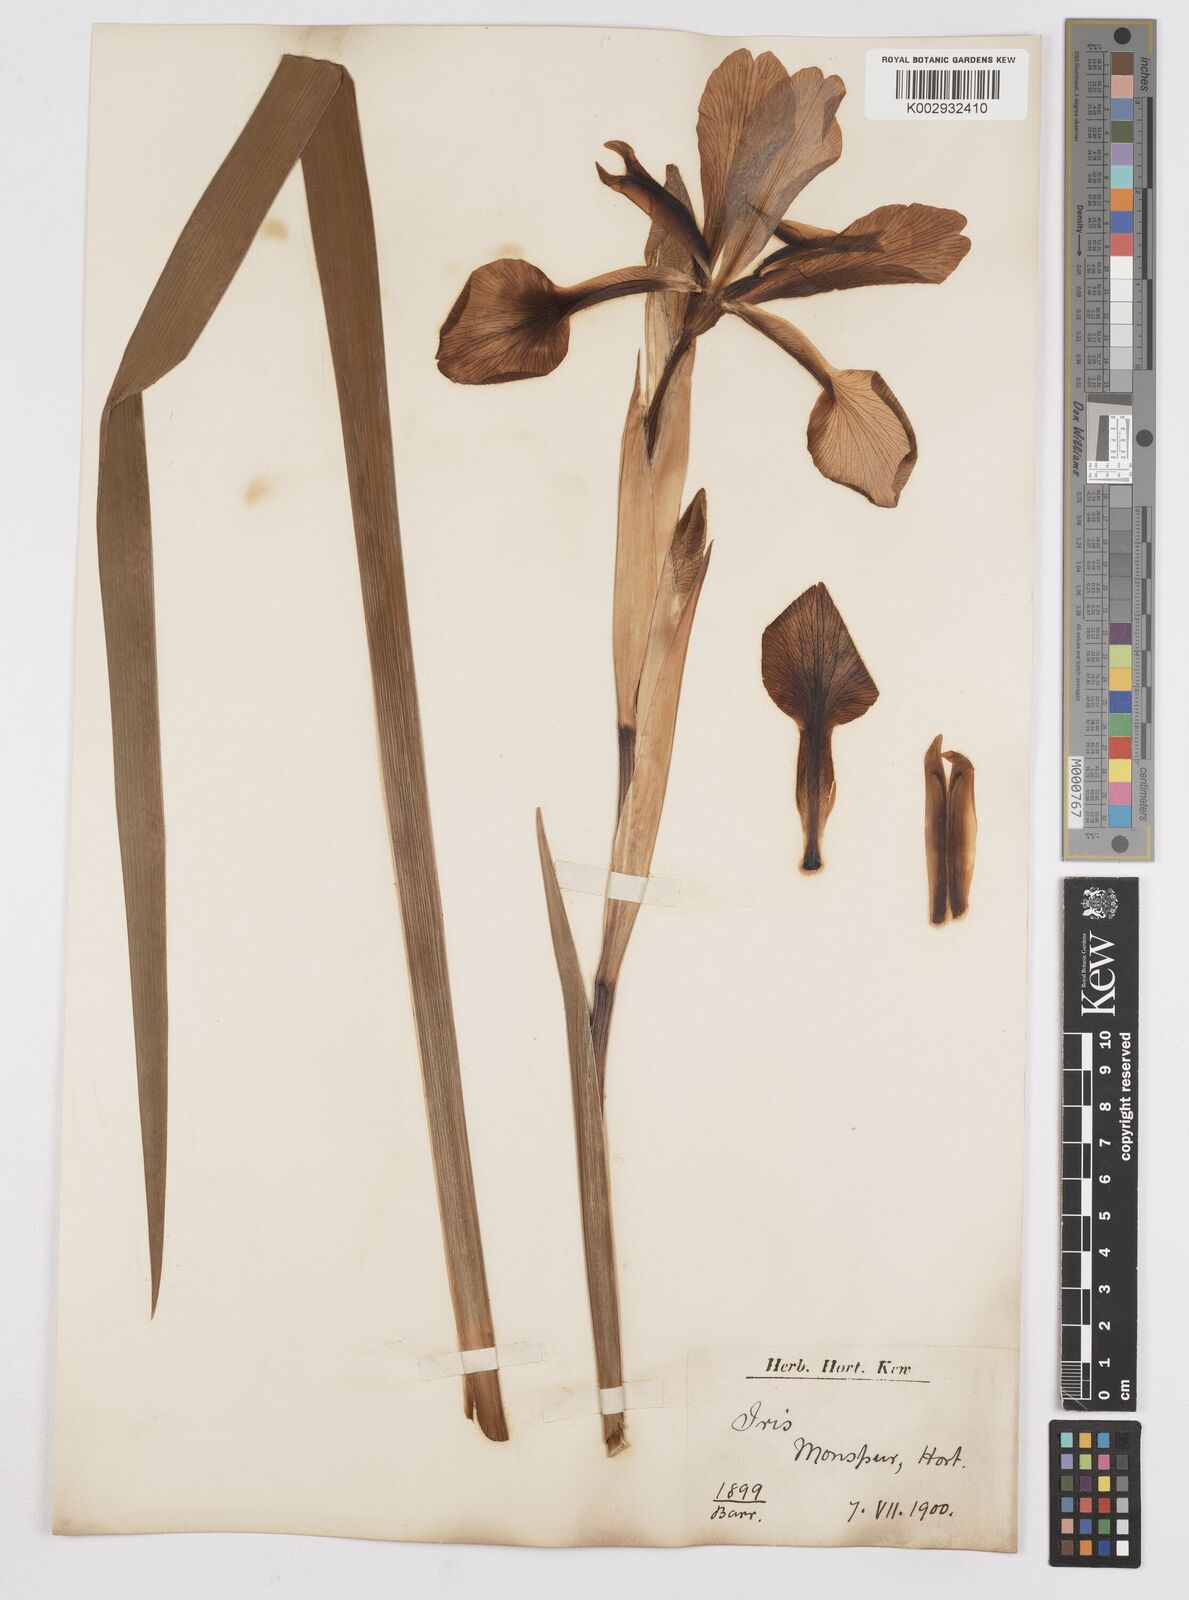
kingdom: Plantae
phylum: Tracheophyta
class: Liliopsida
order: Asparagales
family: Iridaceae
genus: Iris
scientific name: Iris spuria
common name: Blue iris
